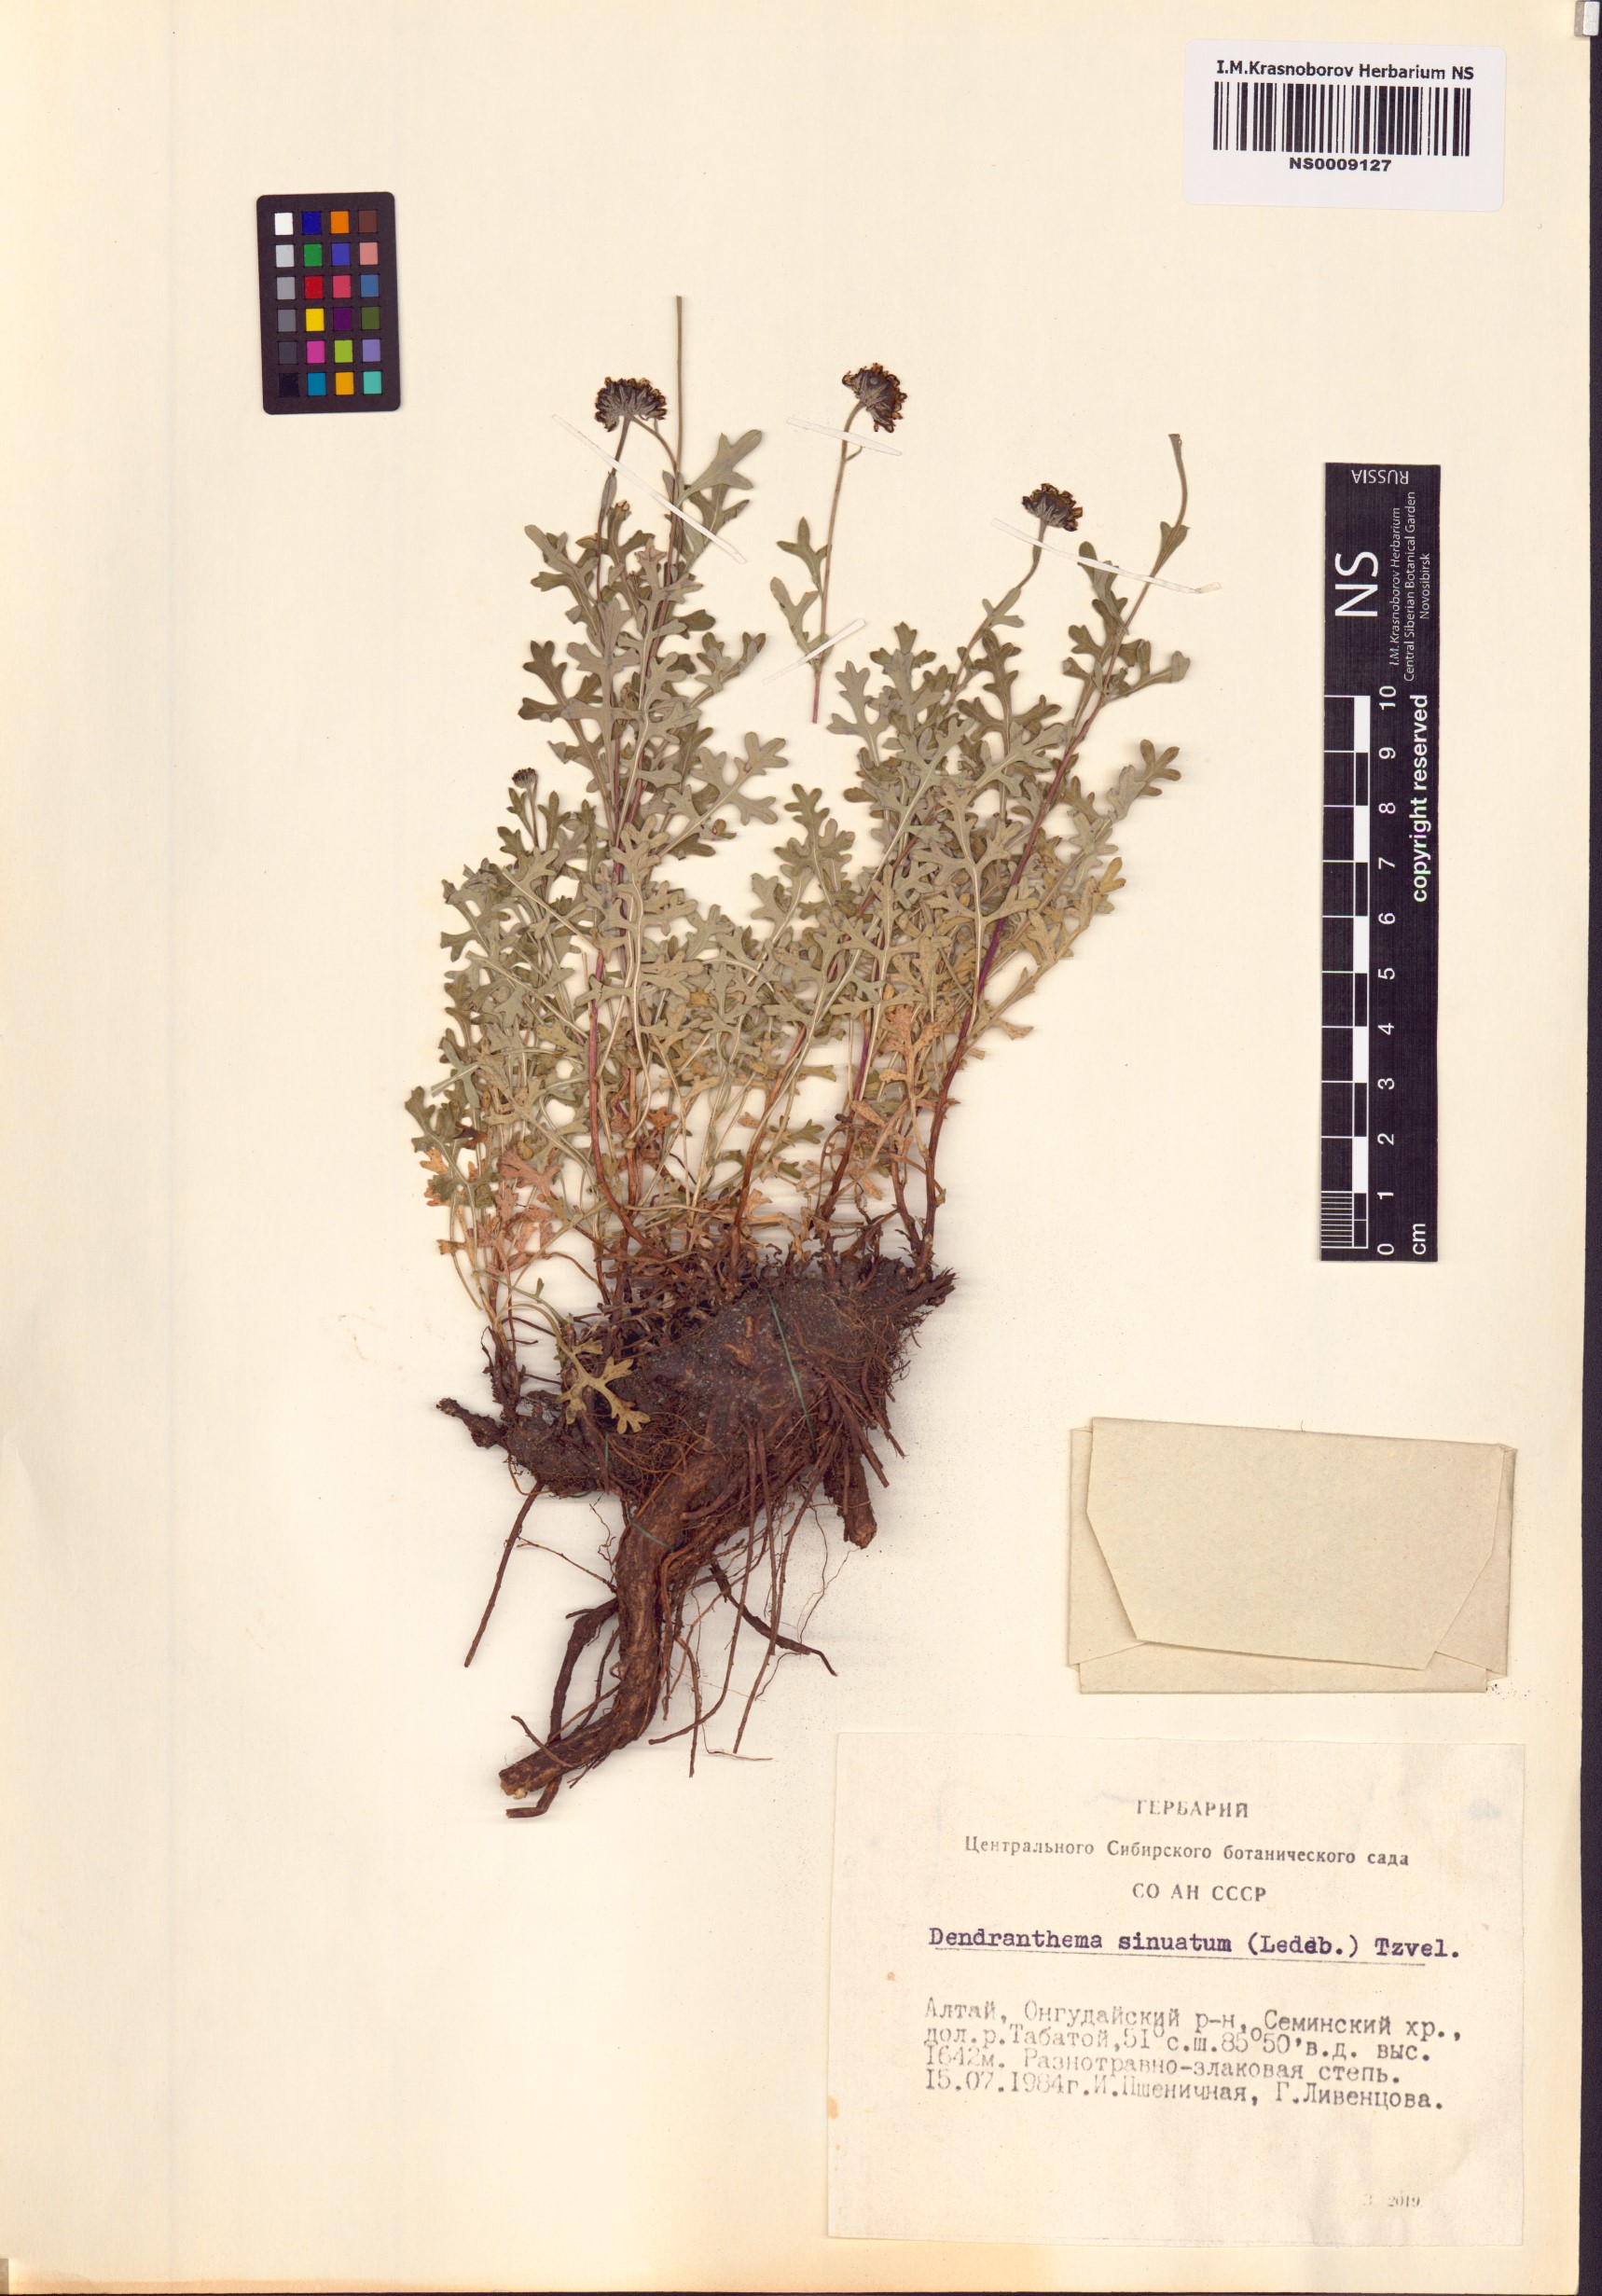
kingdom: Plantae
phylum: Tracheophyta
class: Magnoliopsida
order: Asterales
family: Asteraceae
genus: Chrysanthemum
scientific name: Chrysanthemum sinuatum
